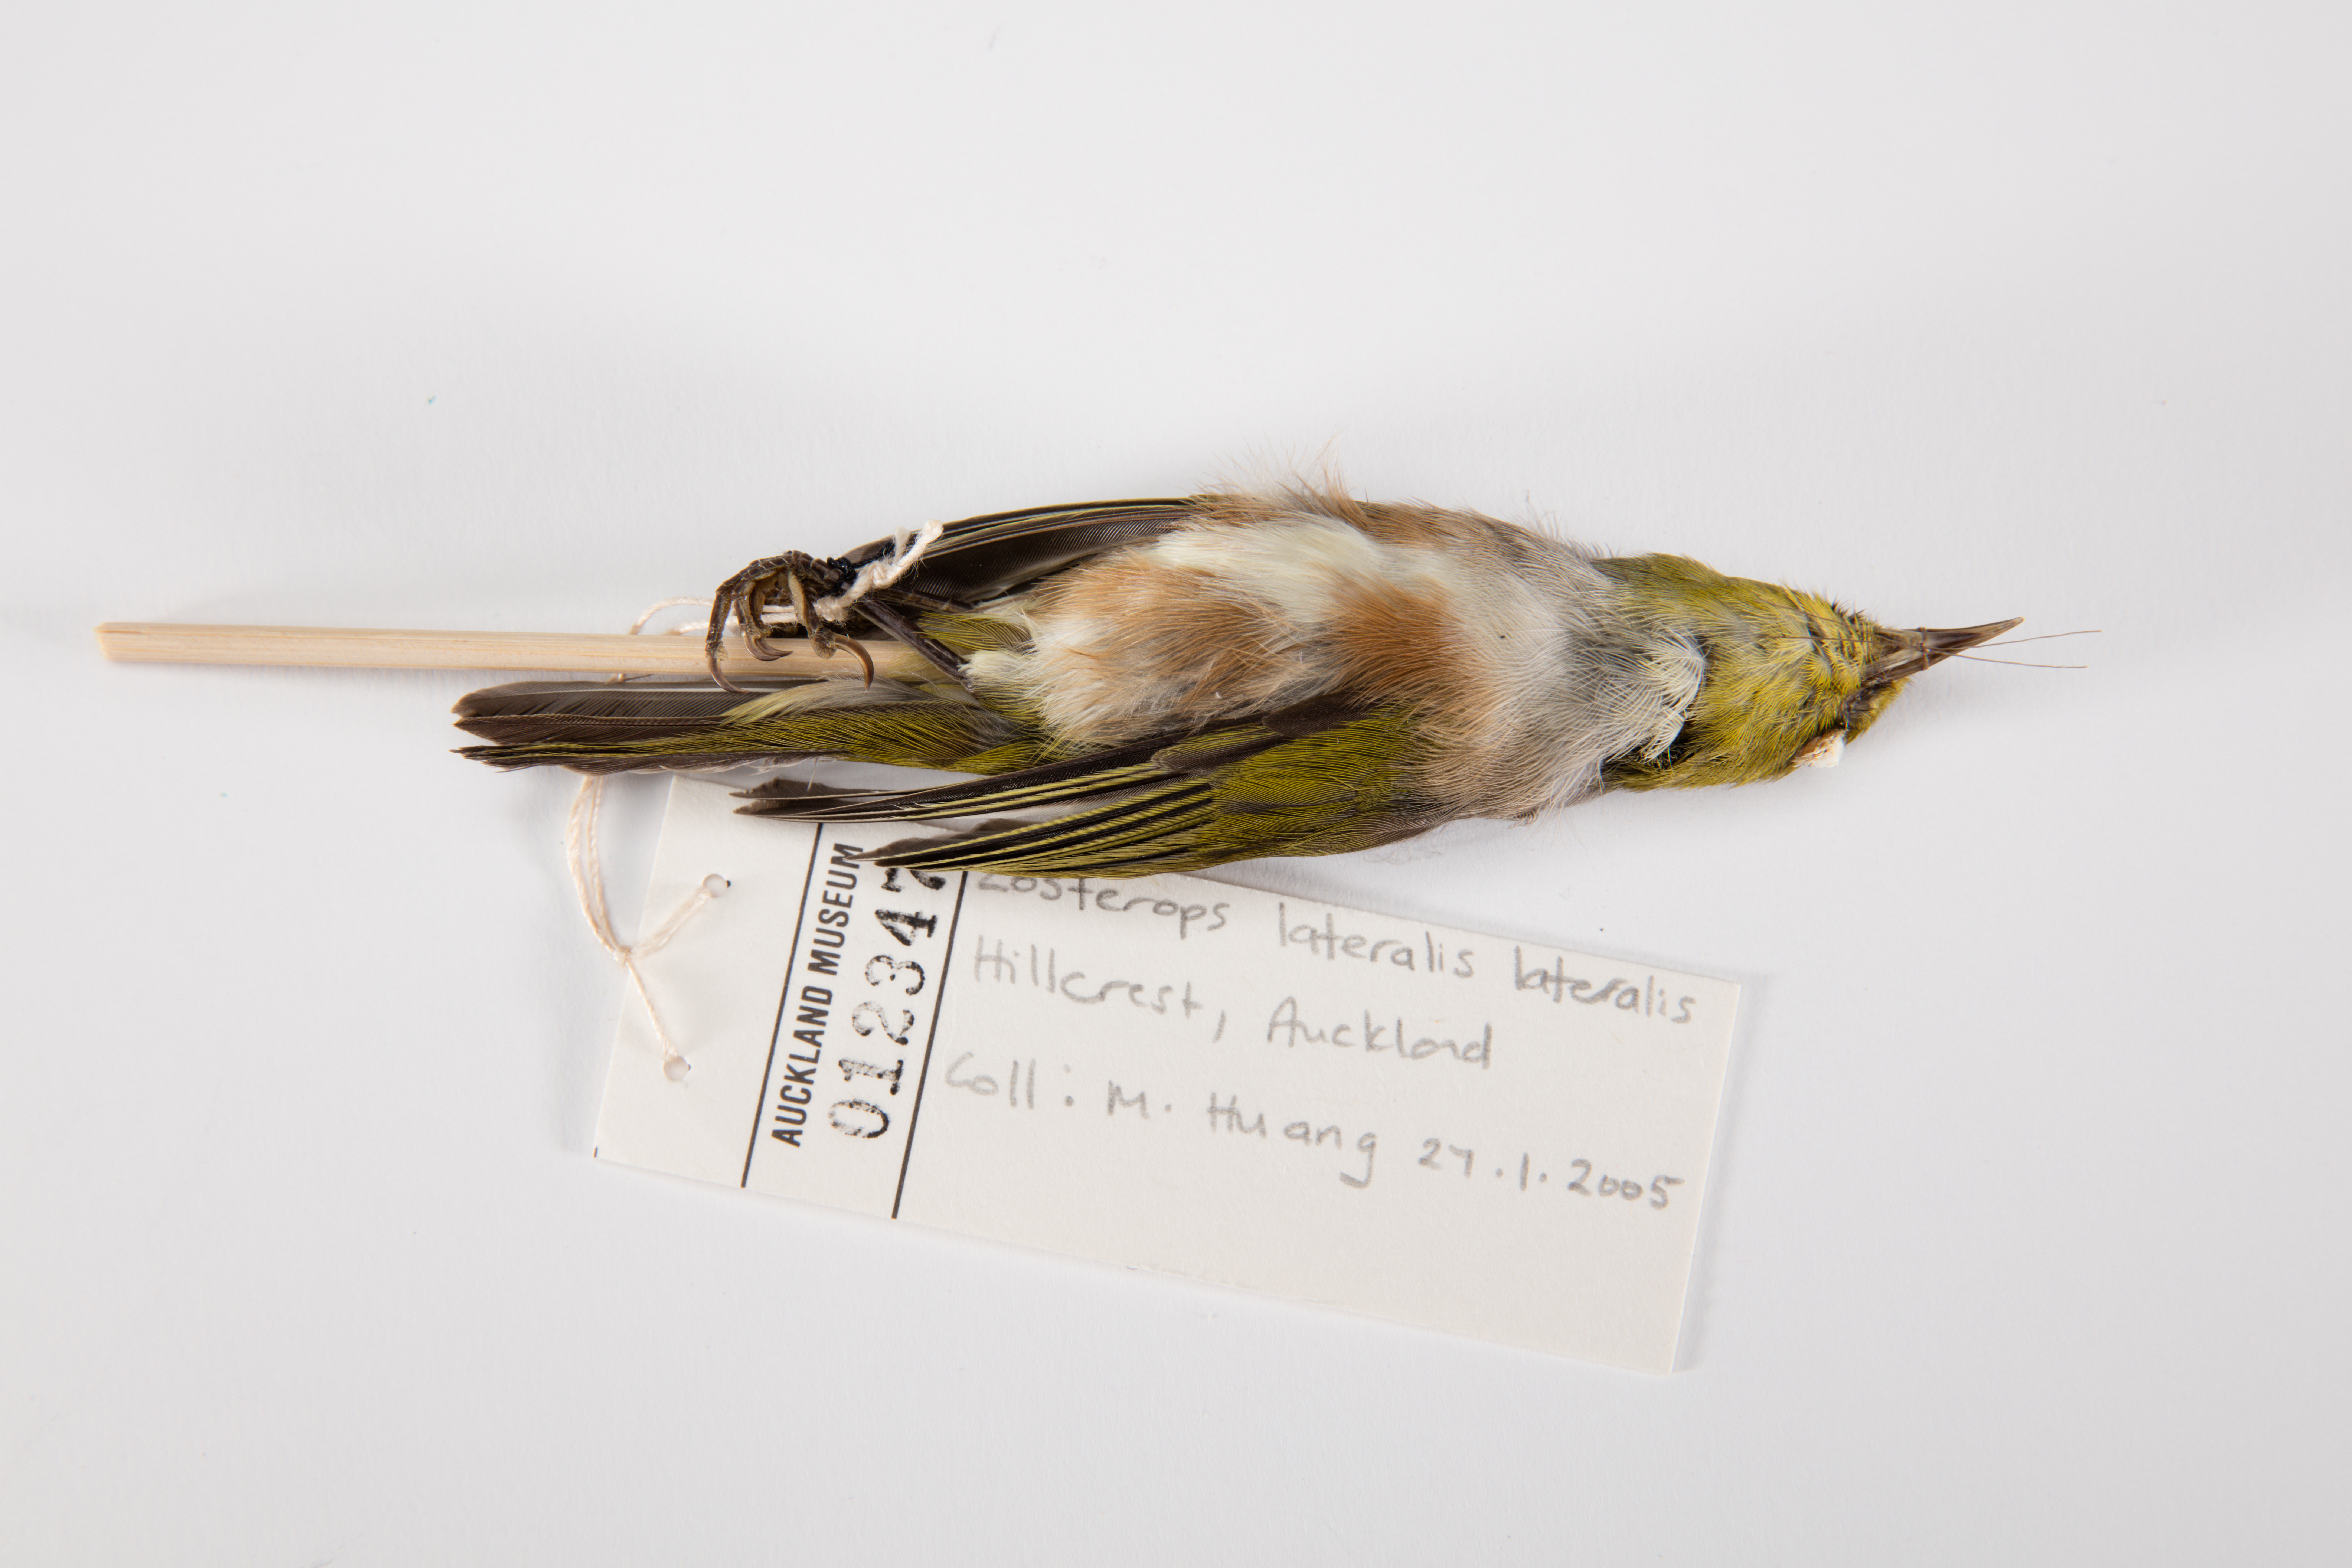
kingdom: Animalia
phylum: Chordata
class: Aves
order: Passeriformes
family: Zosteropidae
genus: Zosterops
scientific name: Zosterops lateralis
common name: Silvereye
